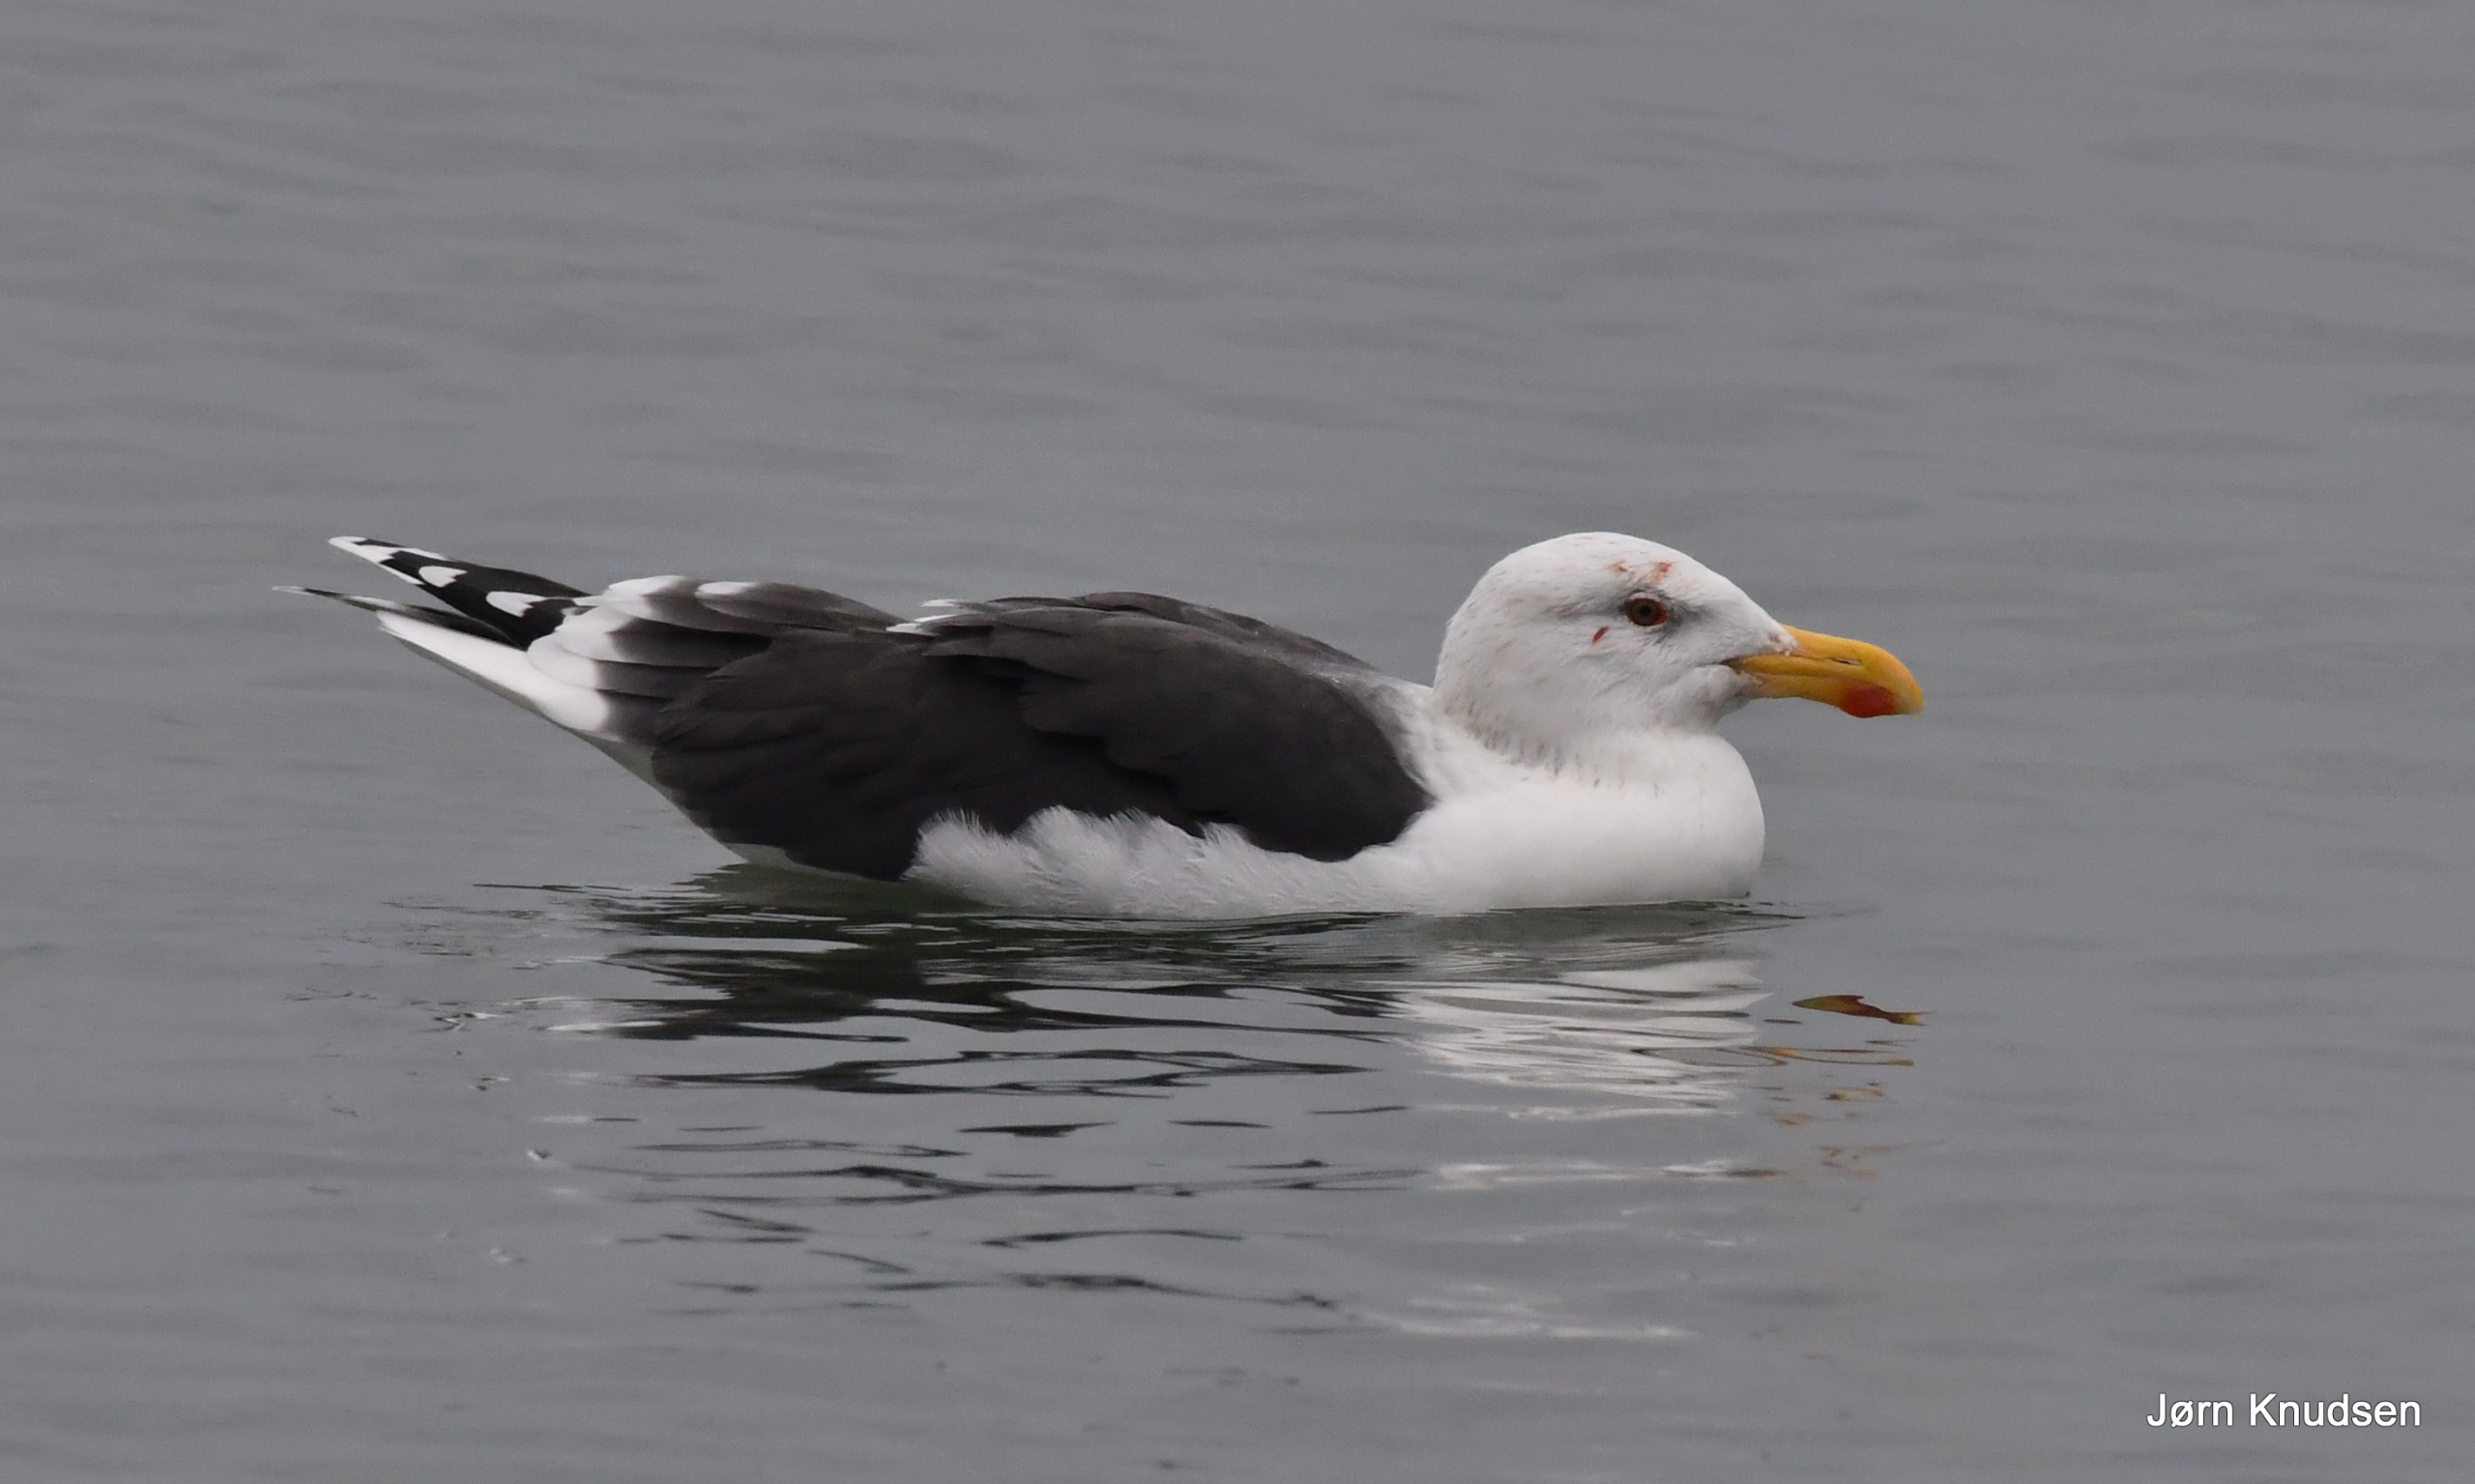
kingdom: Animalia
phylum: Chordata
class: Aves
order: Charadriiformes
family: Laridae
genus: Larus
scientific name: Larus marinus
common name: Svartbag
